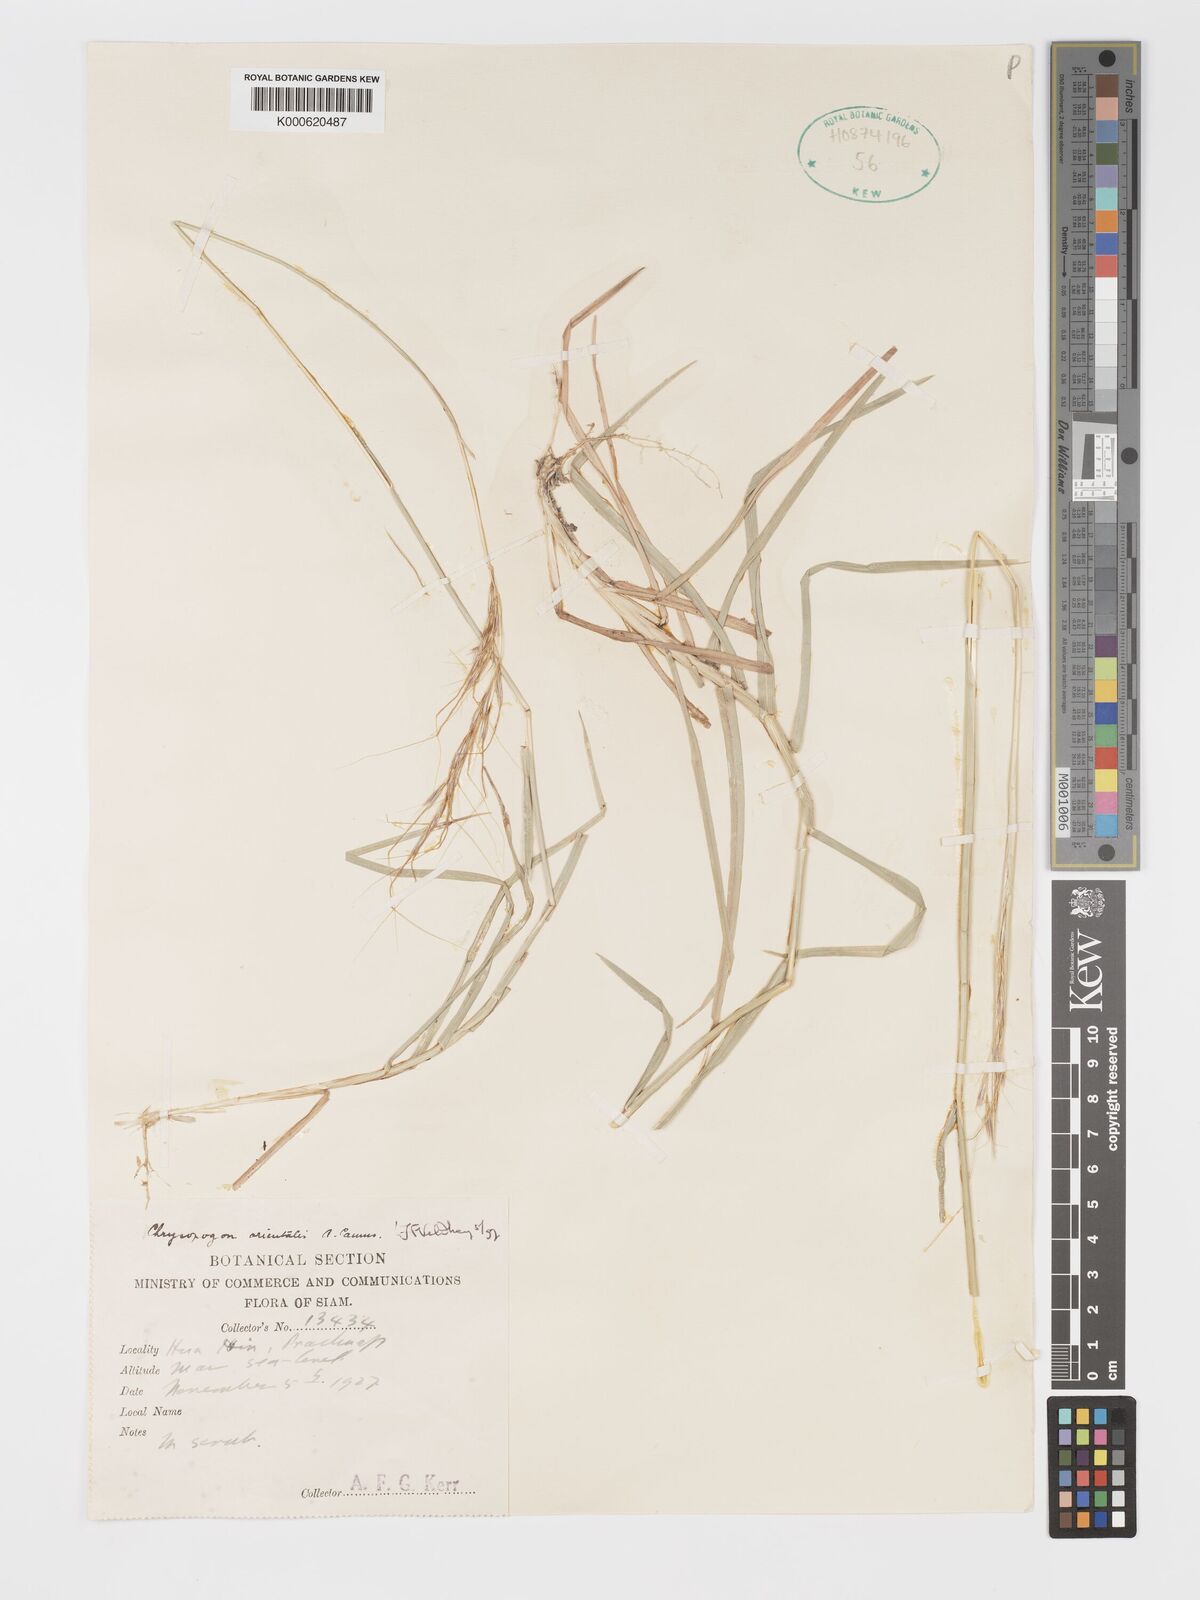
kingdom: Plantae
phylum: Tracheophyta
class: Liliopsida
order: Poales
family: Poaceae
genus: Chrysopogon
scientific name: Chrysopogon orientalis
